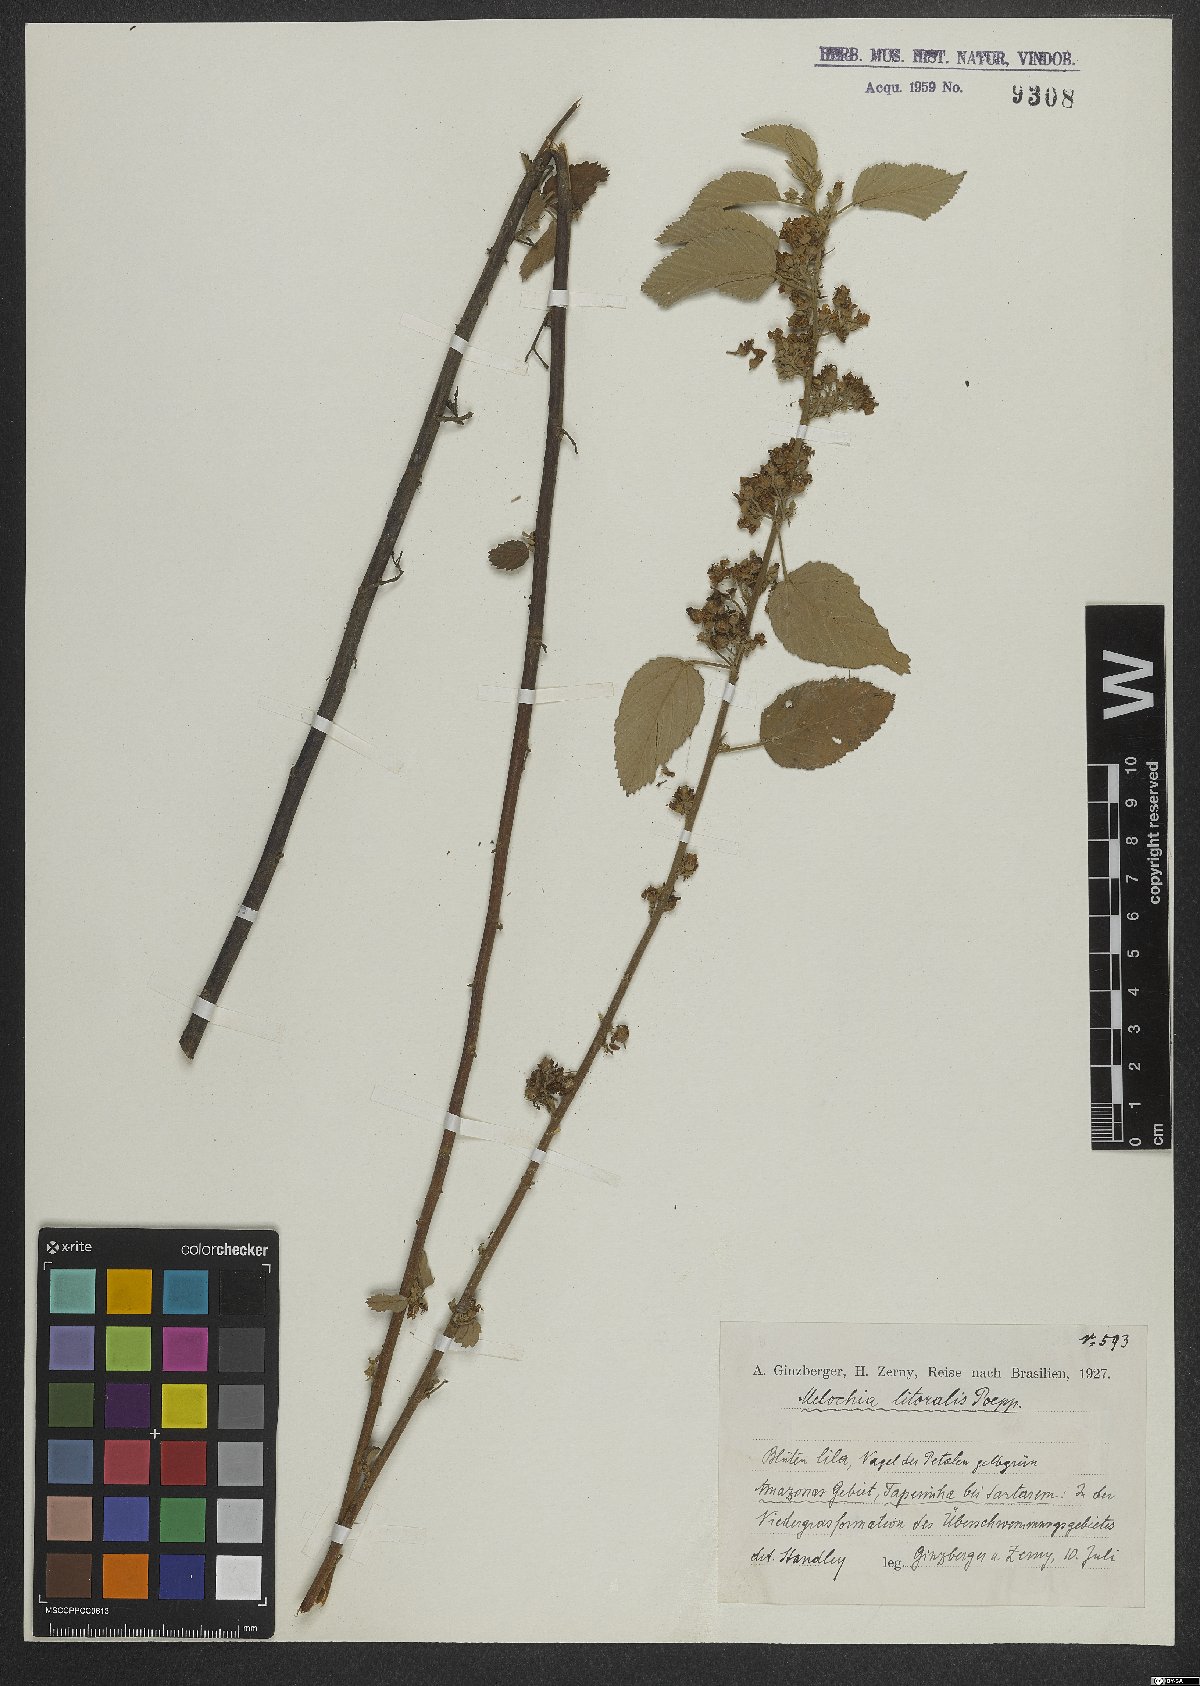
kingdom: Plantae
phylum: Tracheophyta
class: Magnoliopsida
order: Malvales
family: Malvaceae
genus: Melochia
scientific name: Melochia arenosa
